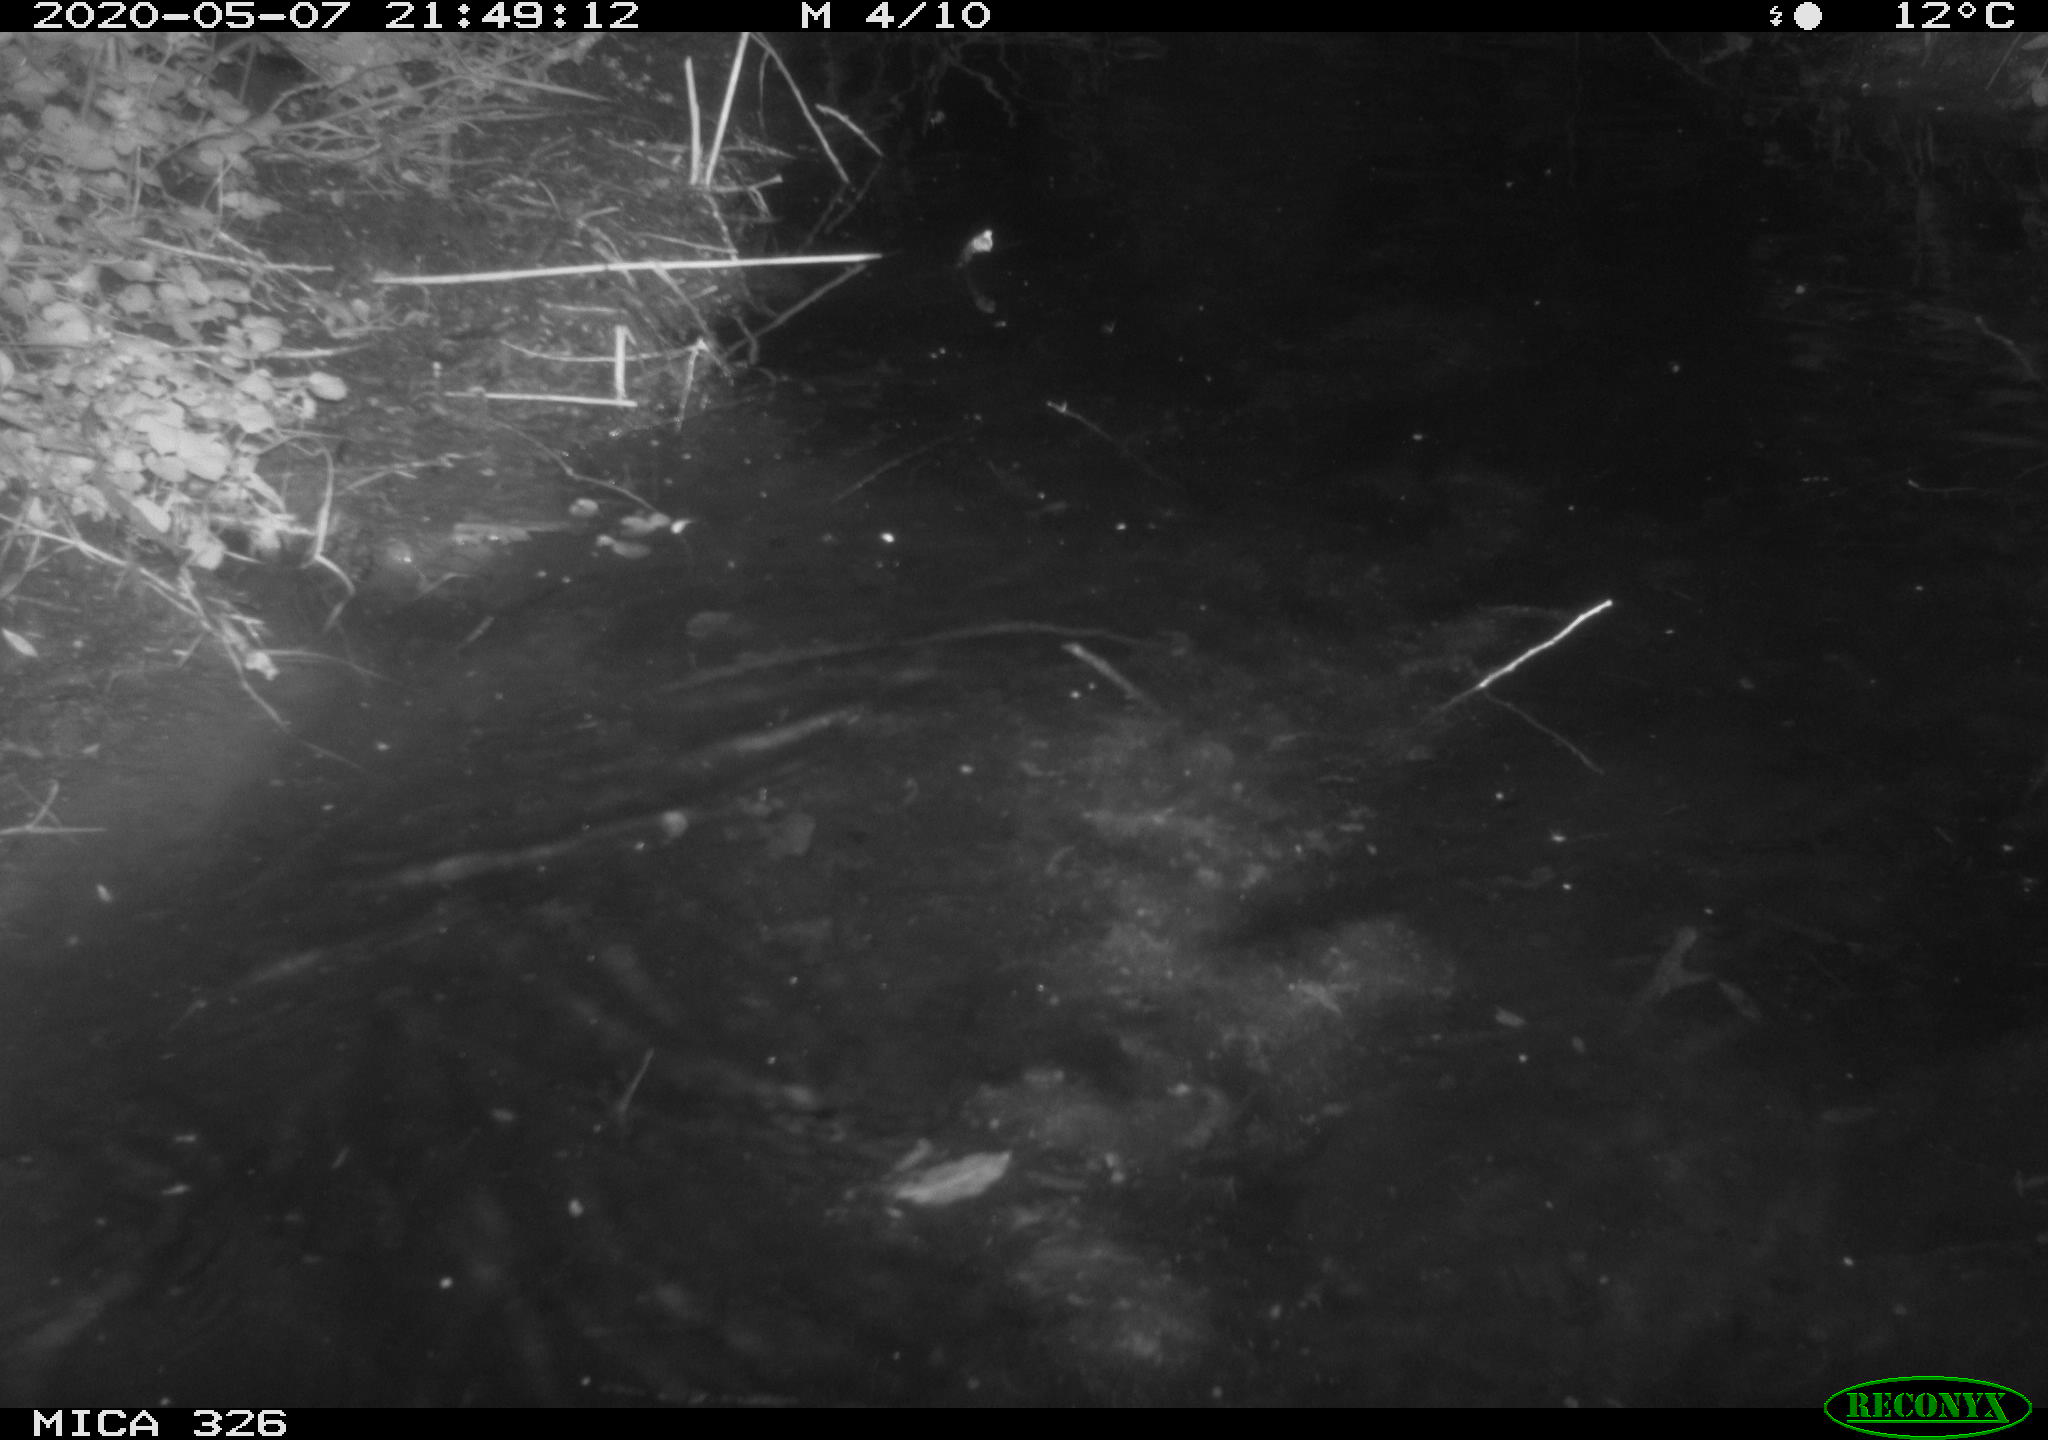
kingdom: Animalia
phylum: Chordata
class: Mammalia
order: Rodentia
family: Myocastoridae
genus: Myocastor
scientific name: Myocastor coypus
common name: Coypu
